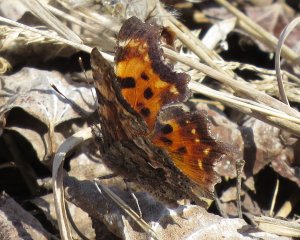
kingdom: Animalia
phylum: Arthropoda
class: Insecta
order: Lepidoptera
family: Nymphalidae
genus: Polygonia
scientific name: Polygonia faunus
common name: Green Comma
